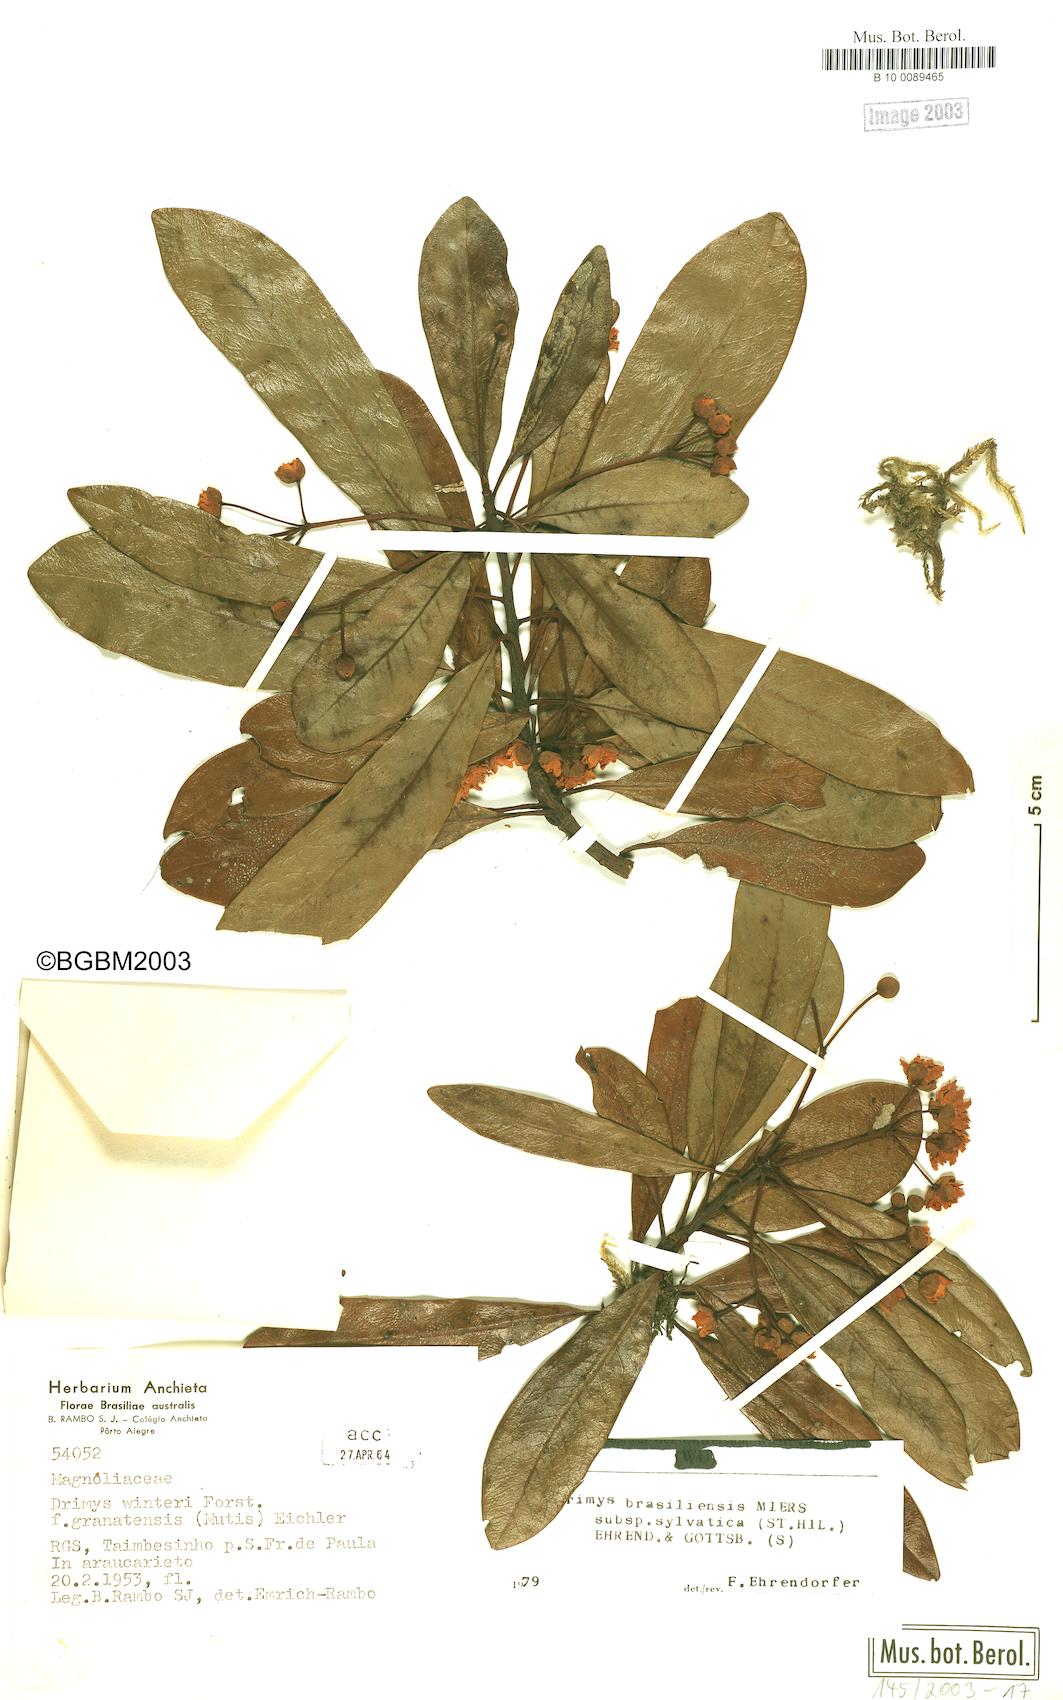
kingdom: Plantae
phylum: Tracheophyta
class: Magnoliopsida
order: Canellales
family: Winteraceae
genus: Drimys
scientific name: Drimys brasiliensis
